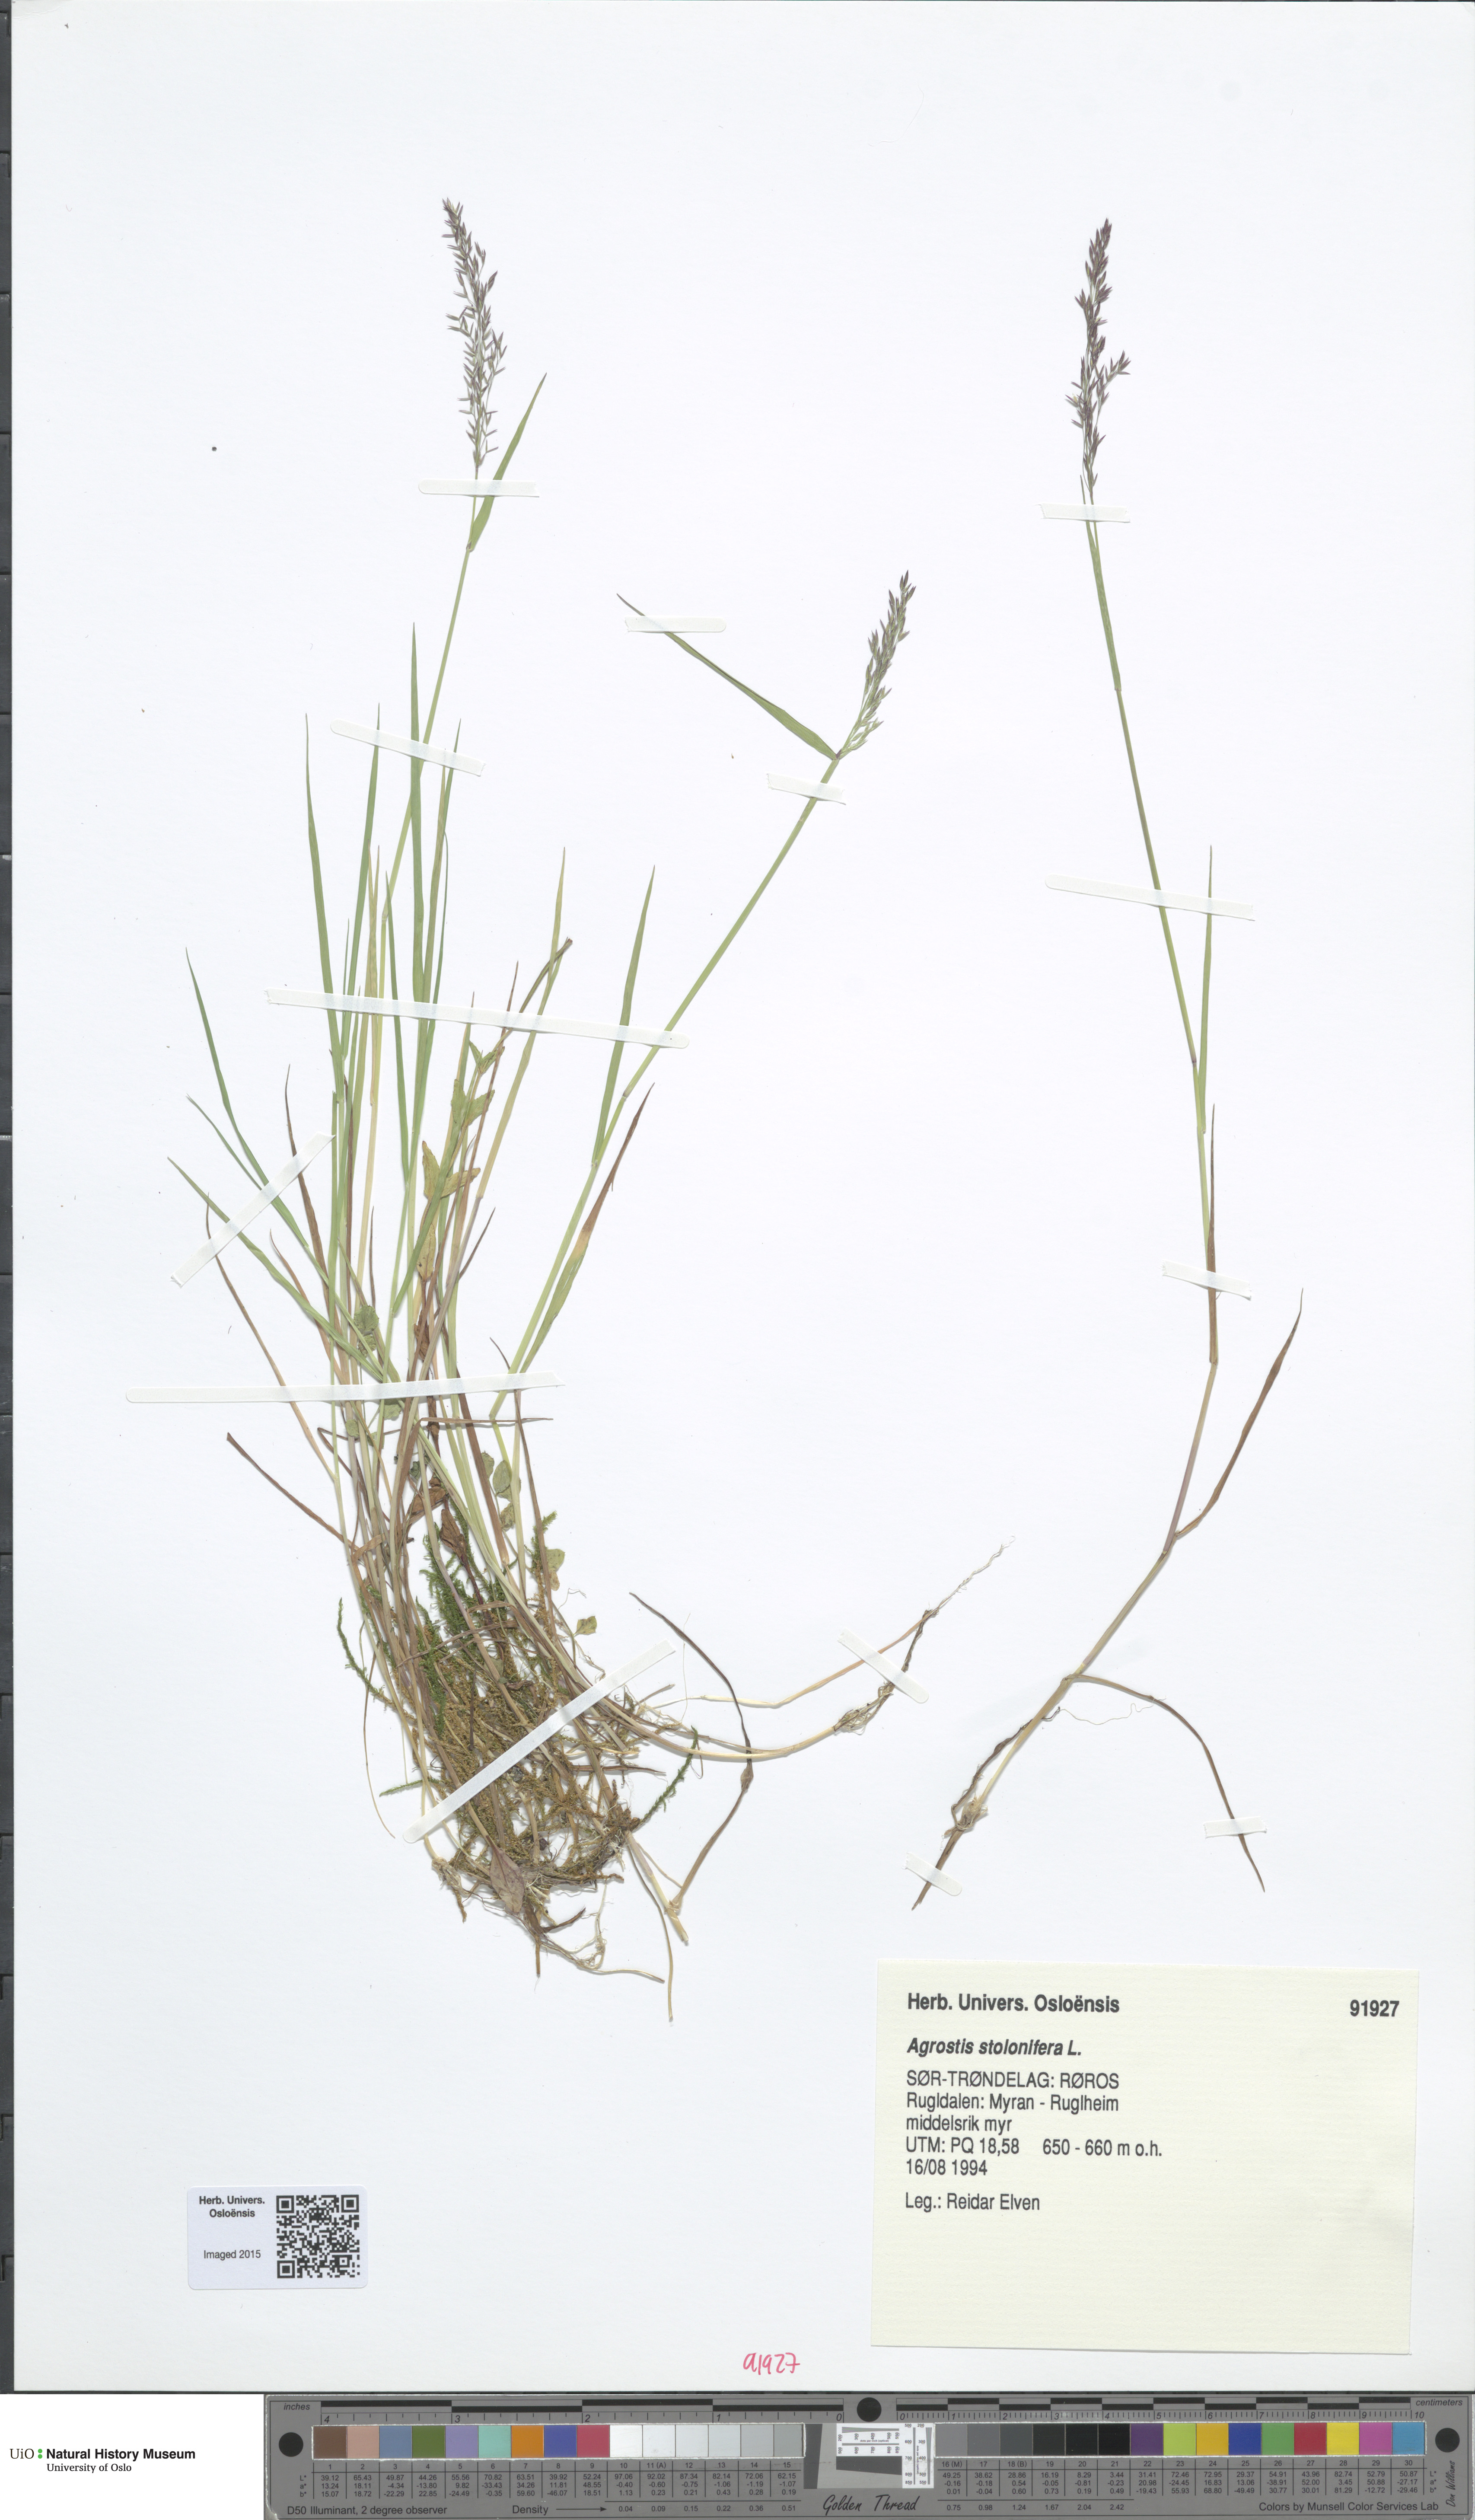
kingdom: Plantae
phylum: Tracheophyta
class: Liliopsida
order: Poales
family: Poaceae
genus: Agrostis
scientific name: Agrostis stolonifera
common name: Creeping bentgrass
